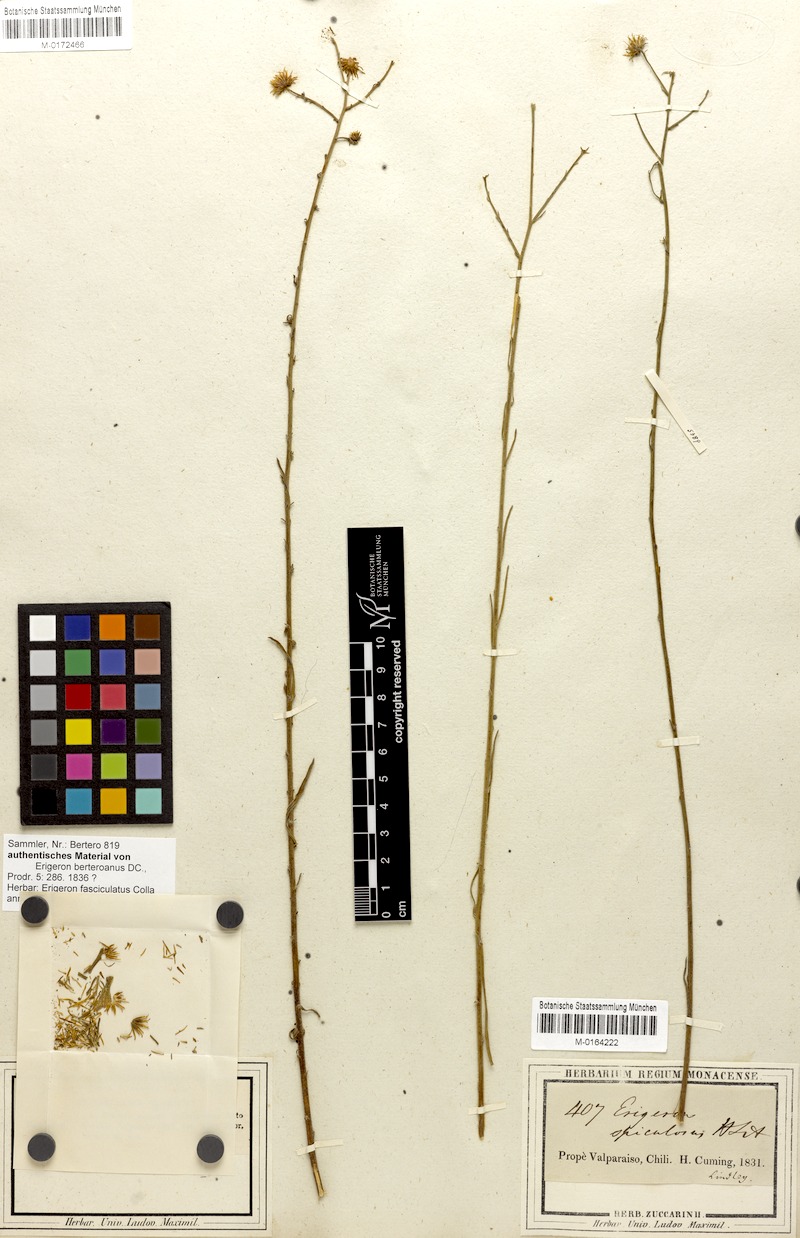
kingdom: Plantae
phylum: Tracheophyta
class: Magnoliopsida
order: Asterales
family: Asteraceae
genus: Erigeron
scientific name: Erigeron fasciculatus
